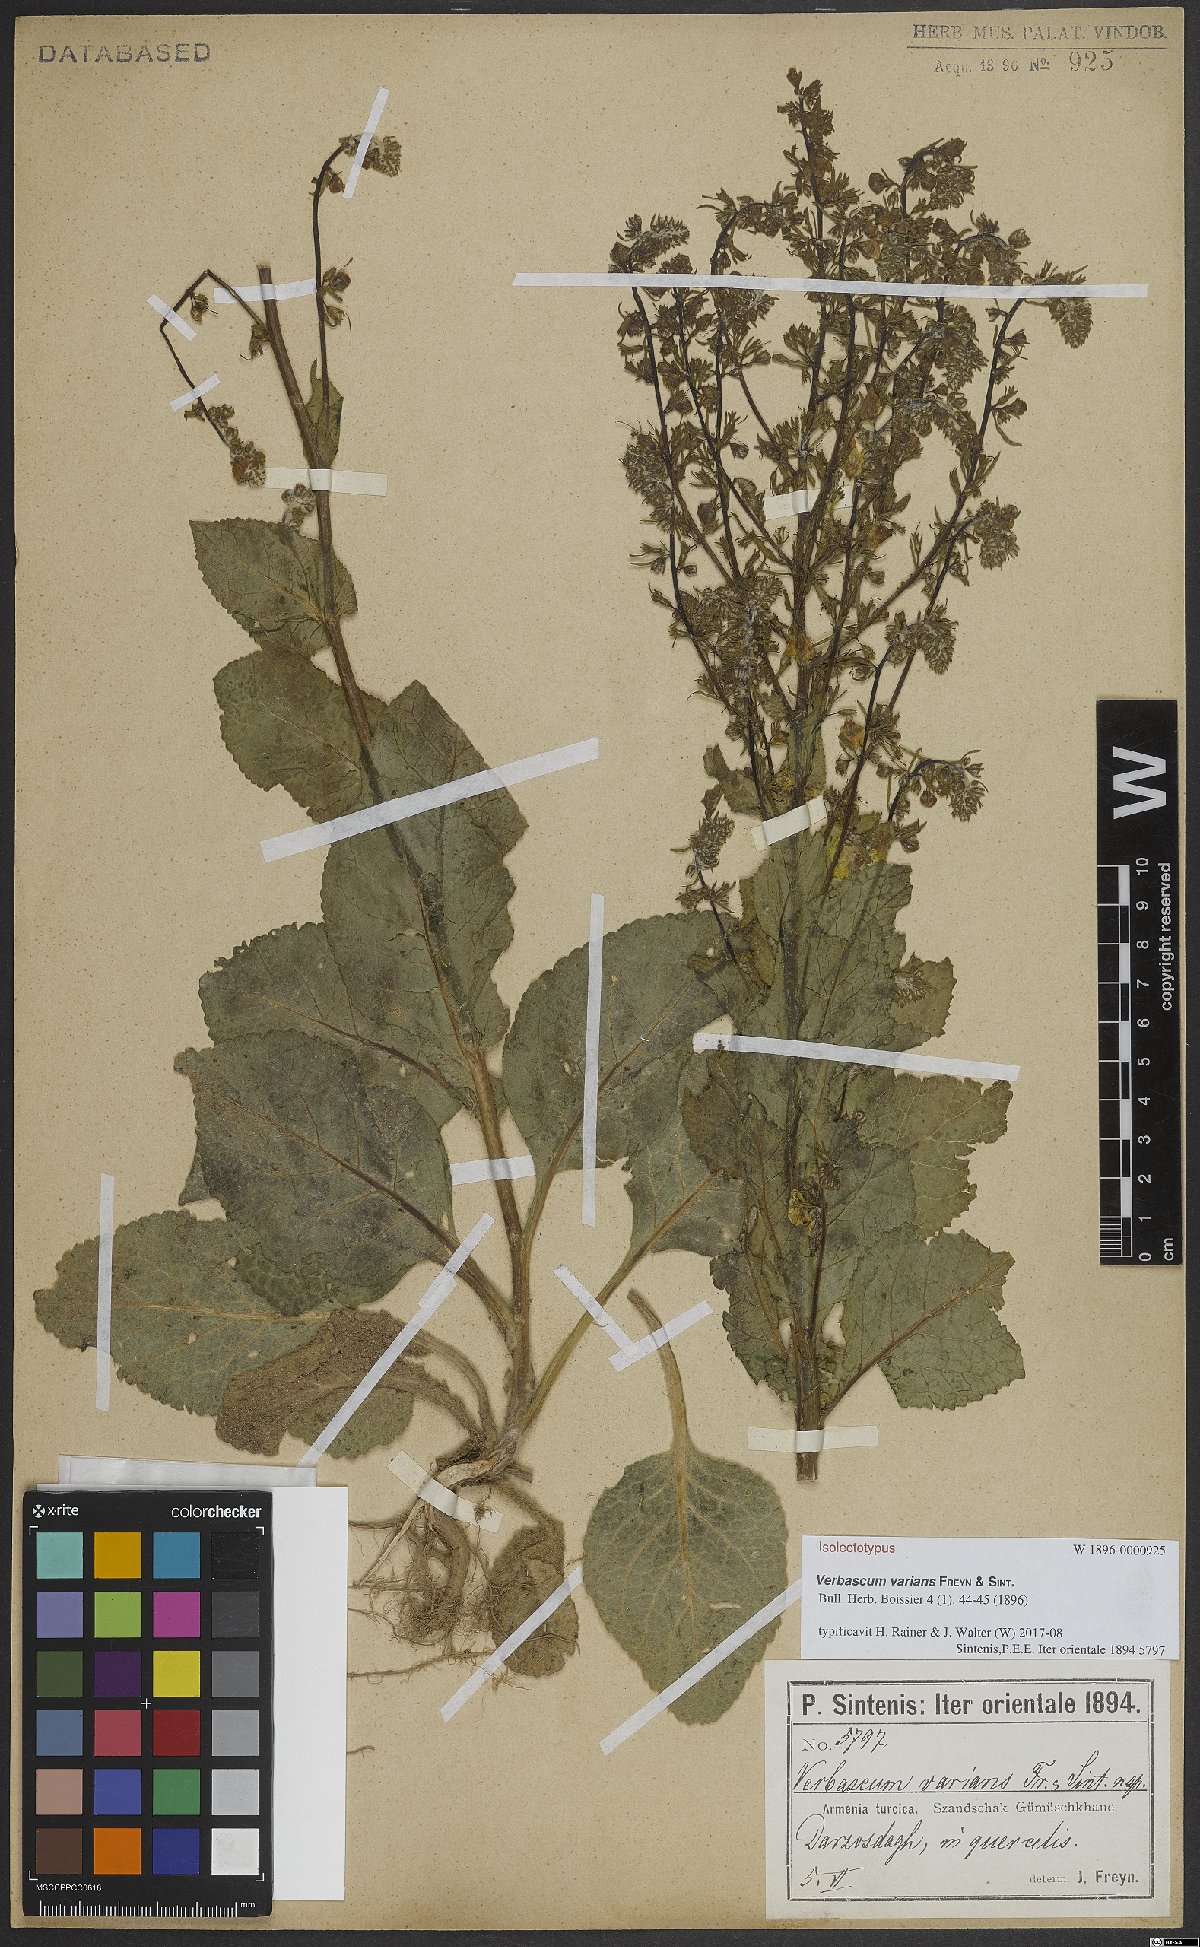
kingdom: Plantae
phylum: Tracheophyta
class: Magnoliopsida
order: Lamiales
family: Scrophulariaceae
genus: Verbascum
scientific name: Verbascum varians
